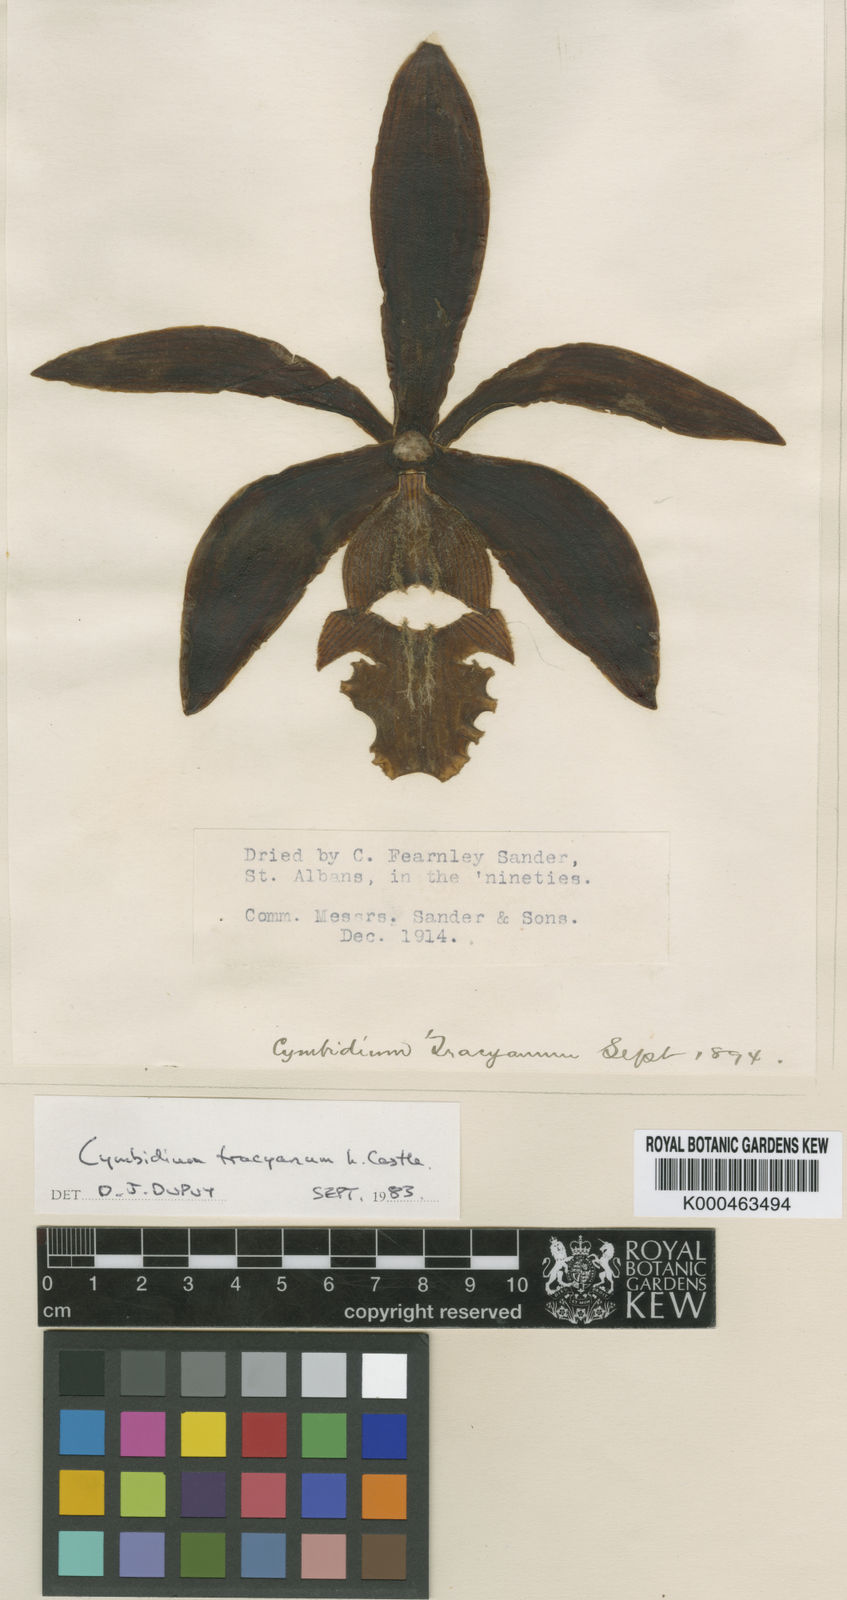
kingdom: Plantae
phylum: Tracheophyta
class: Liliopsida
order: Asparagales
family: Orchidaceae
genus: Cymbidium
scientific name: Cymbidium tracyanum
